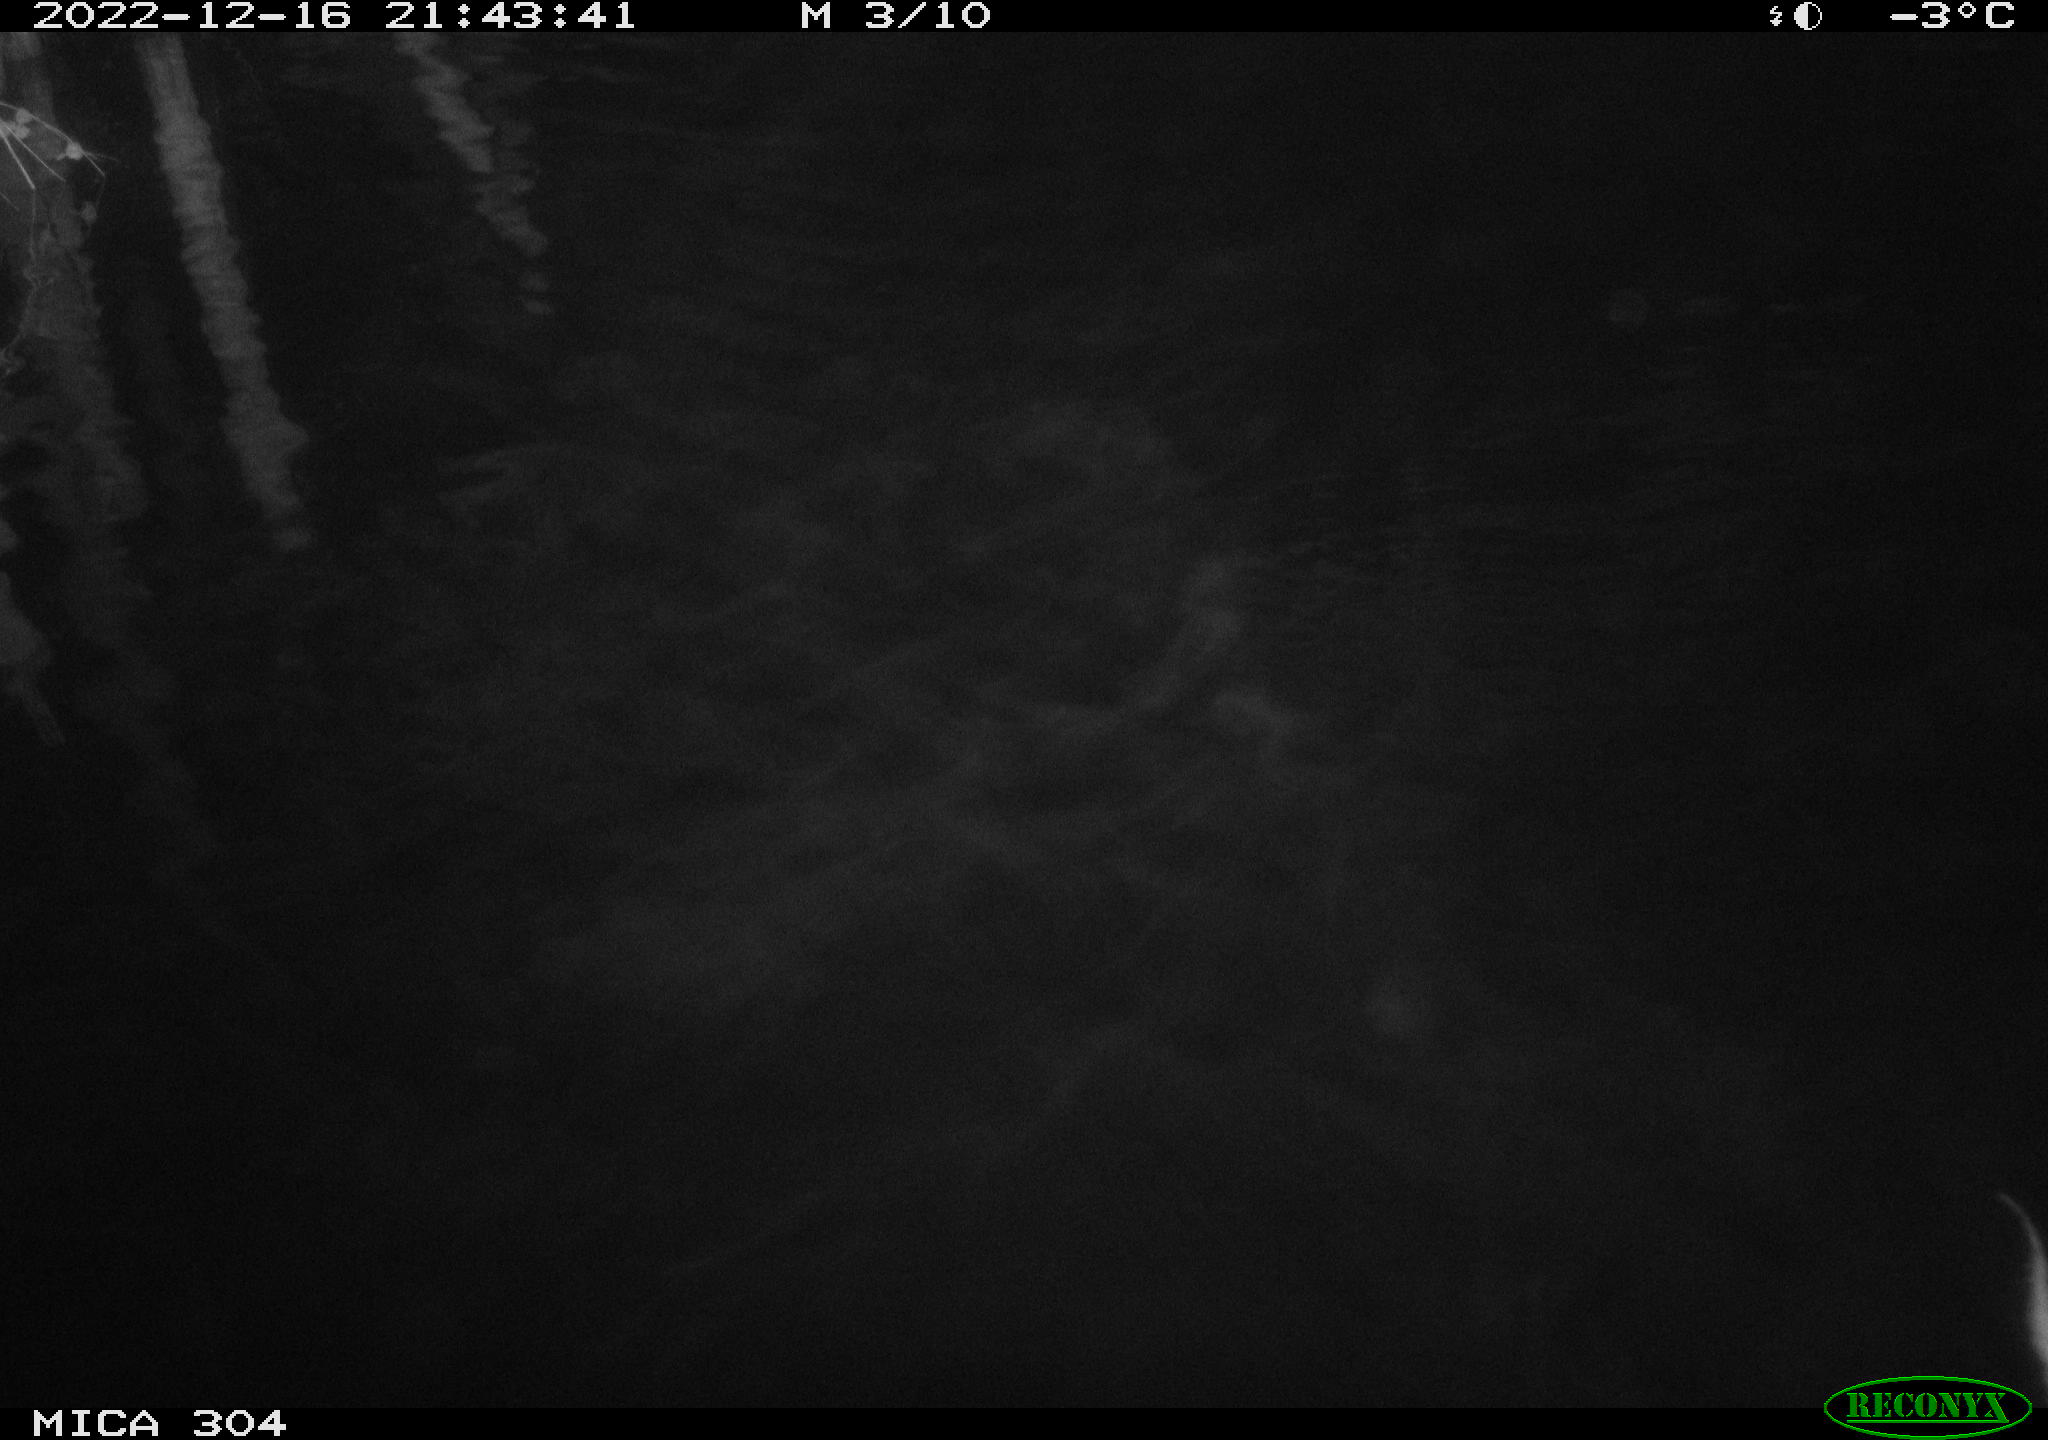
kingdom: Animalia
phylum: Chordata
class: Mammalia
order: Rodentia
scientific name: Rodentia
